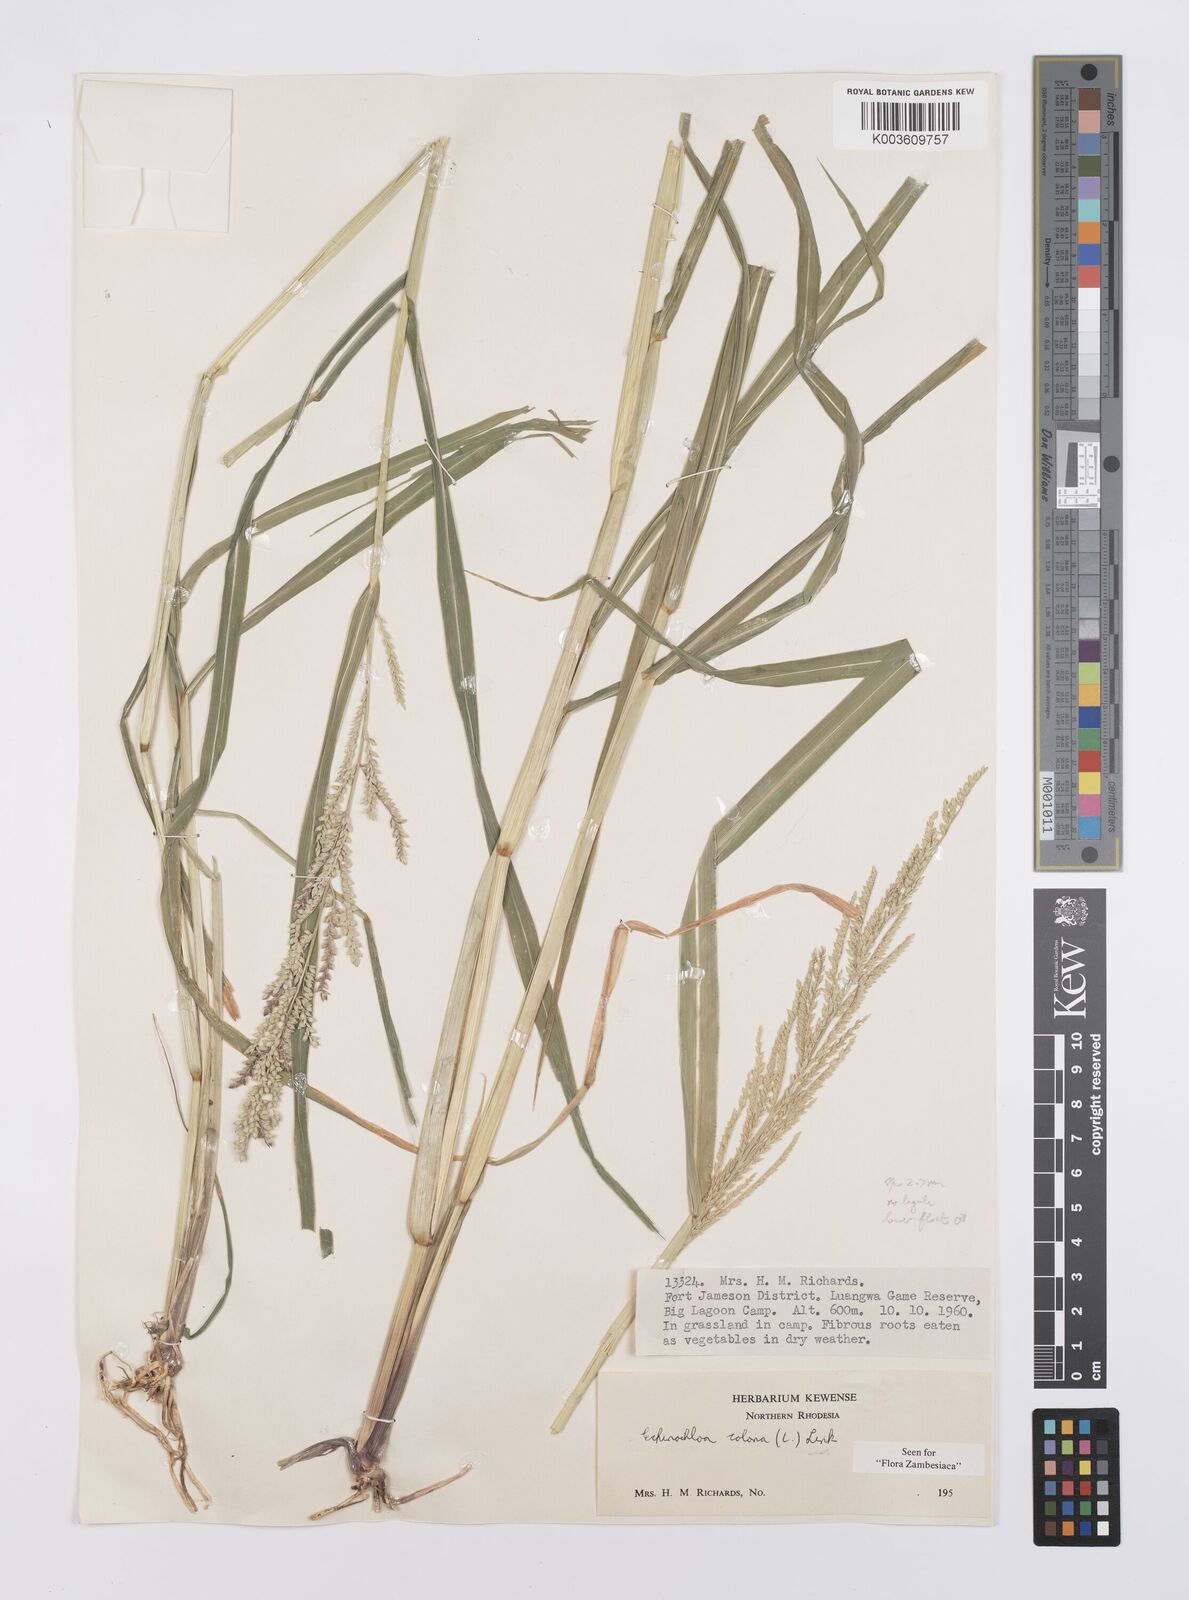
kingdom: Plantae
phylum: Tracheophyta
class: Liliopsida
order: Poales
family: Poaceae
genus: Echinochloa
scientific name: Echinochloa colonum
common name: Jungle rice
